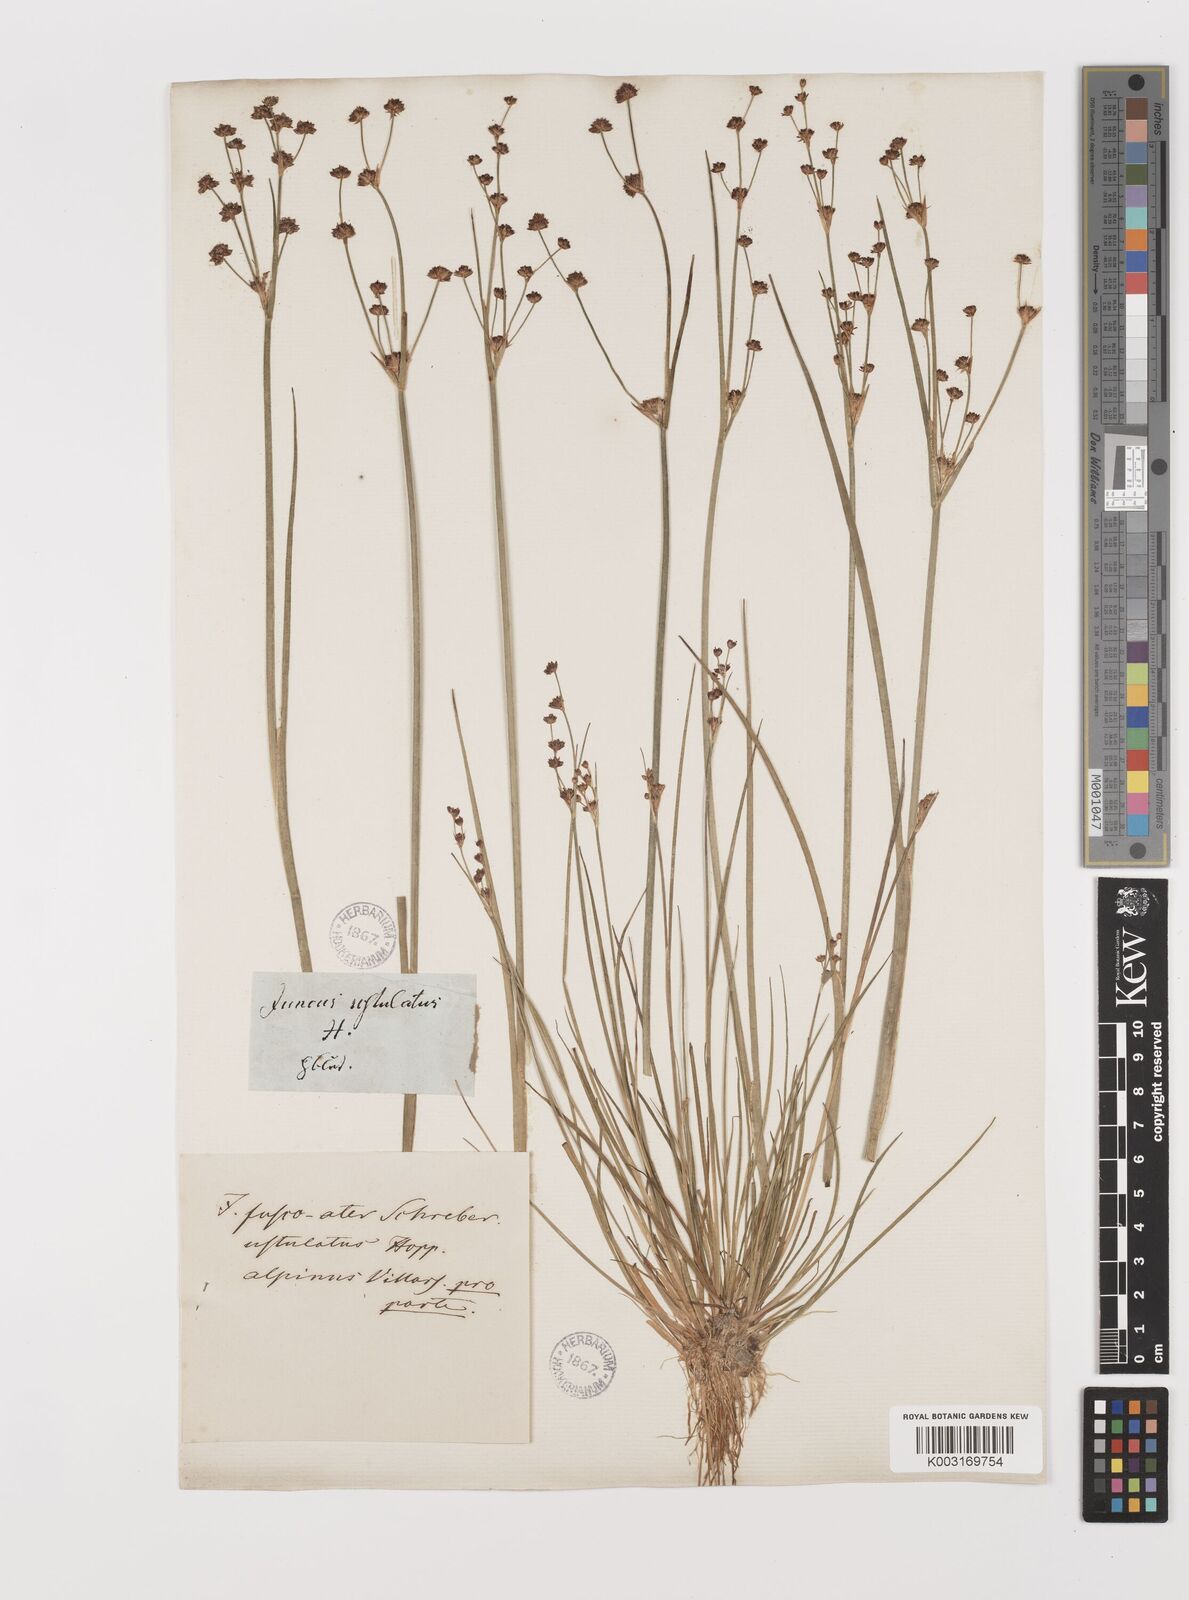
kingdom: Plantae
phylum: Tracheophyta
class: Liliopsida
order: Poales
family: Juncaceae
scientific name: Juncaceae
